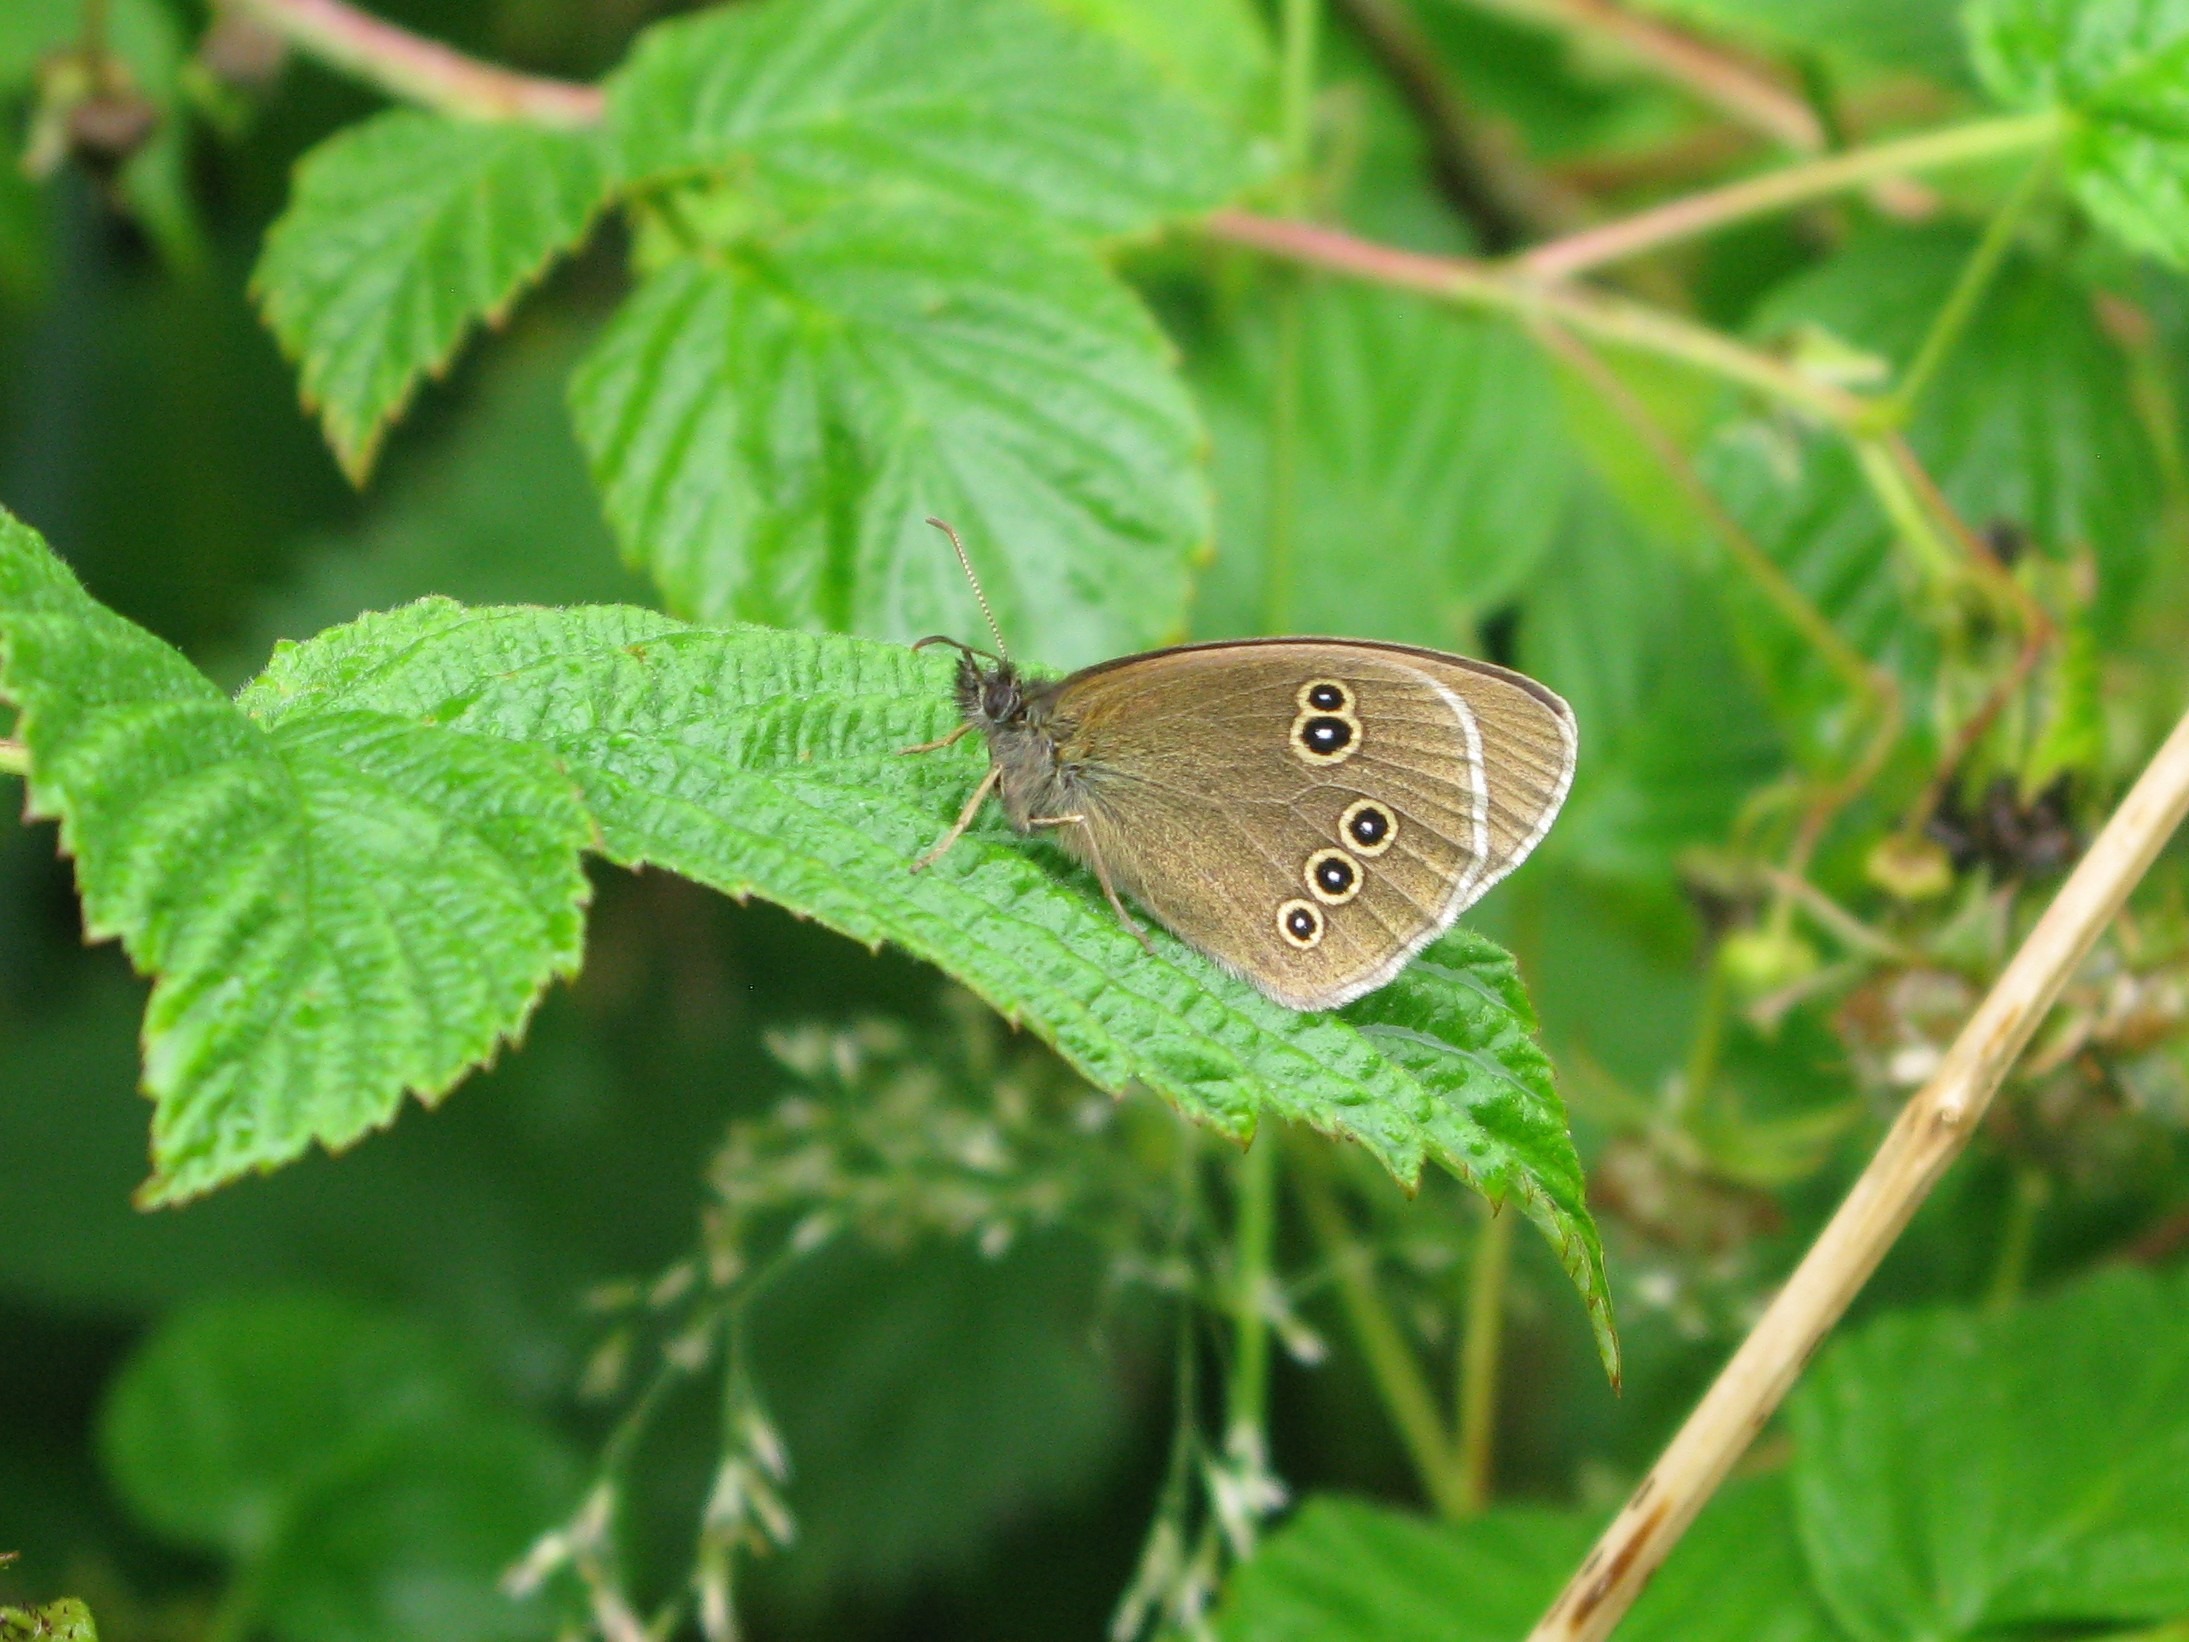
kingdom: Animalia
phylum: Arthropoda
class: Insecta
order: Lepidoptera
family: Nymphalidae
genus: Aphantopus
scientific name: Aphantopus hyperantus
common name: Engrandøje
